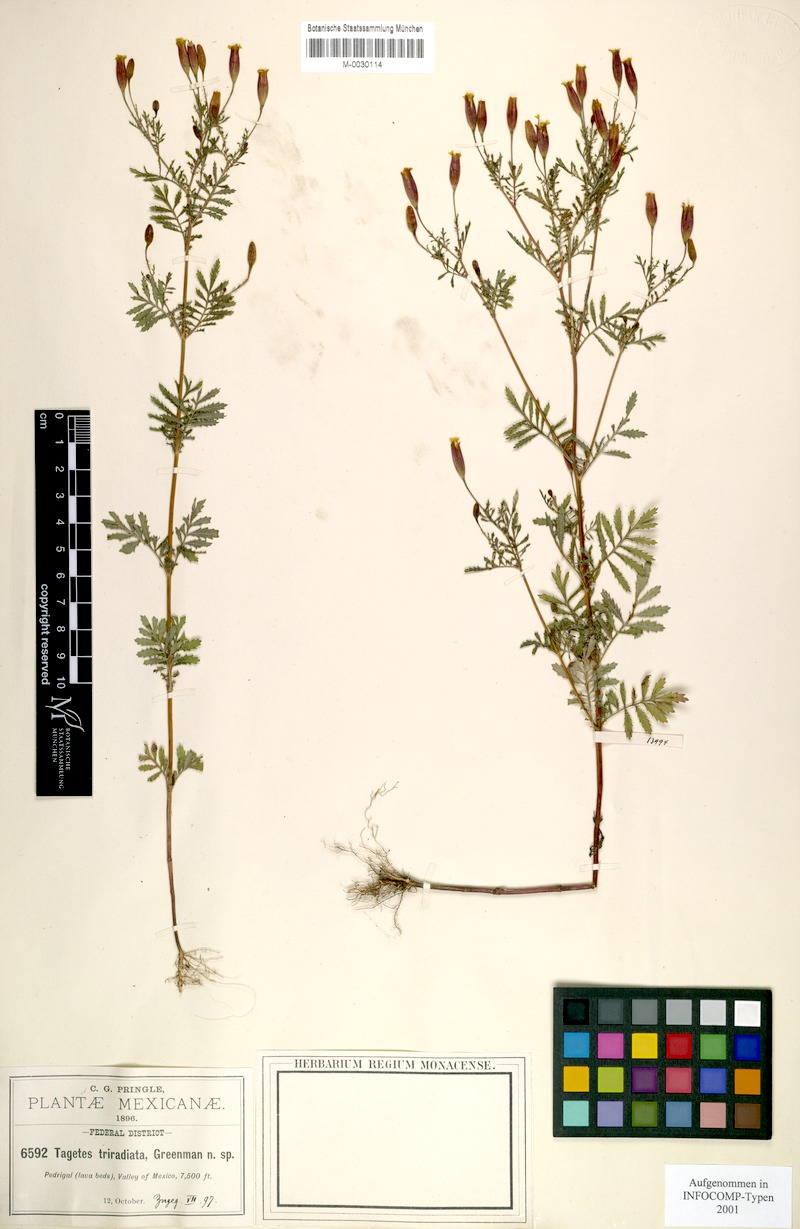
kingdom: Plantae
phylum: Tracheophyta
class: Magnoliopsida
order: Asterales
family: Asteraceae
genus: Tagetes
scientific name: Tagetes triradiata
